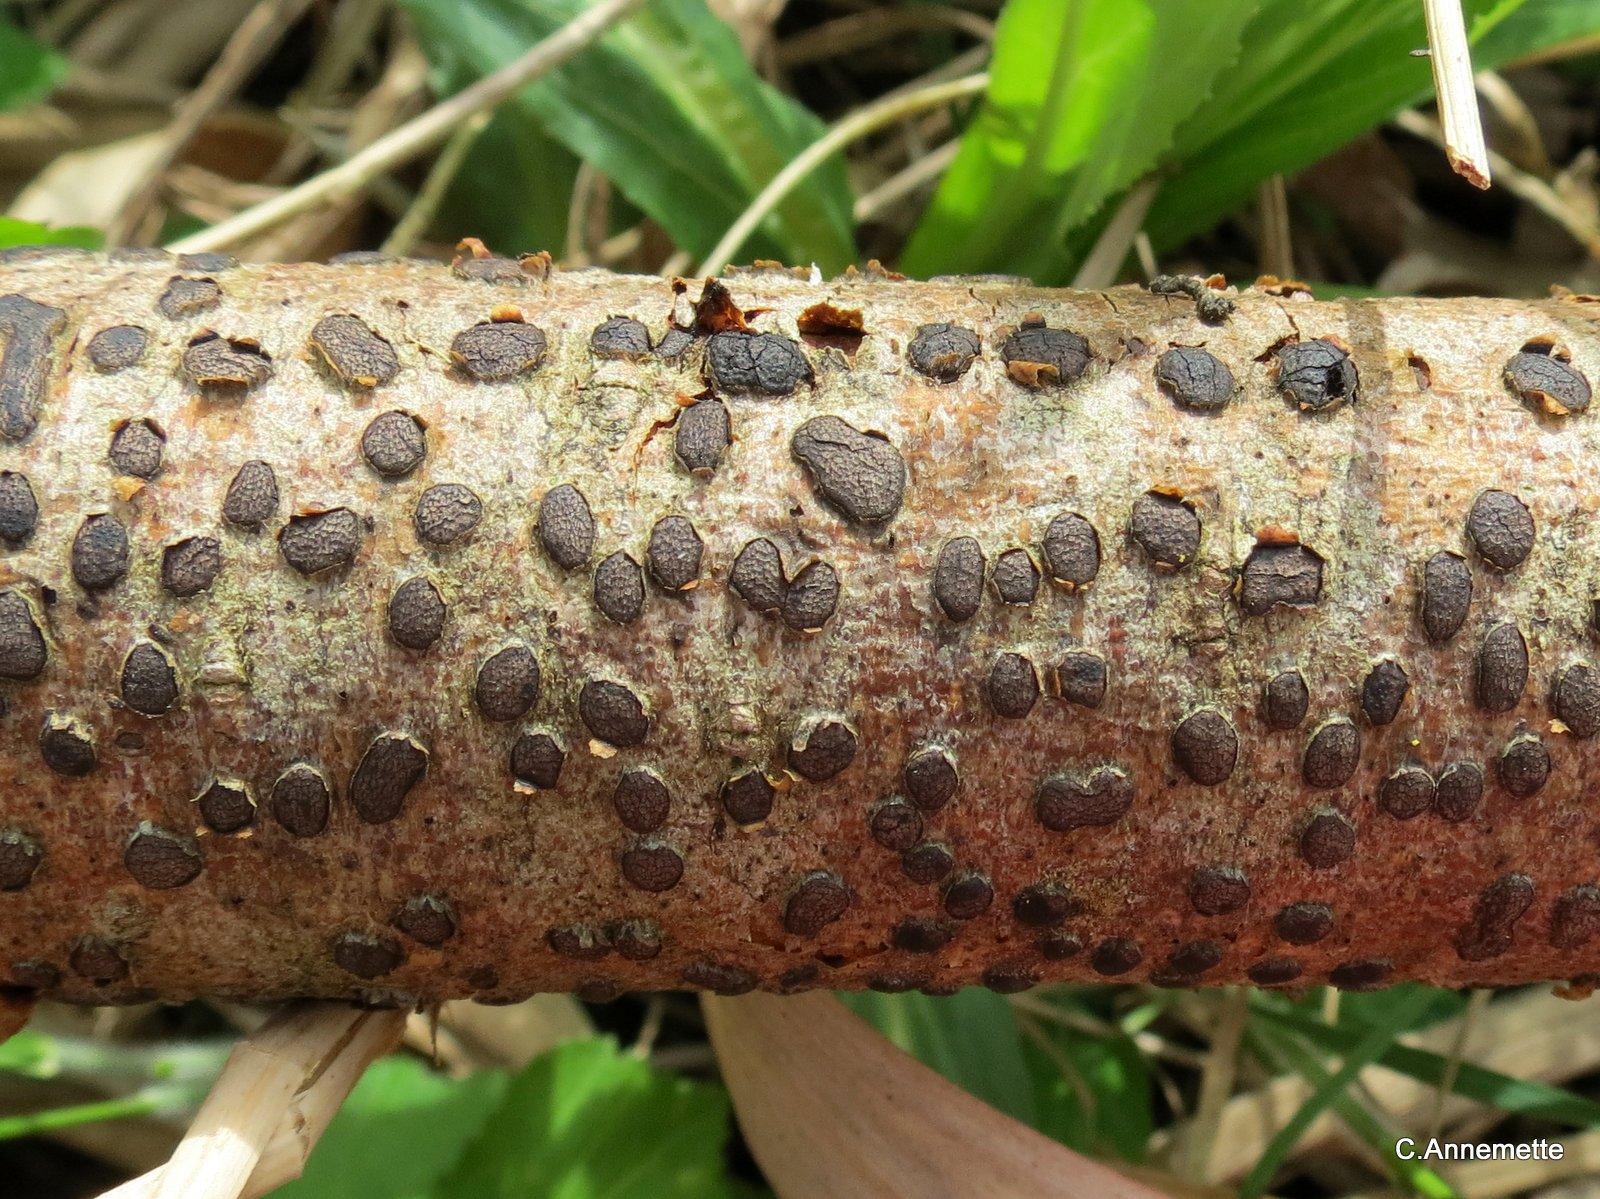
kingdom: Fungi
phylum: Ascomycota
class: Sordariomycetes
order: Xylariales
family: Diatrypaceae
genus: Diatrype
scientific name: Diatrype bullata
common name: pile-kulskorpe
